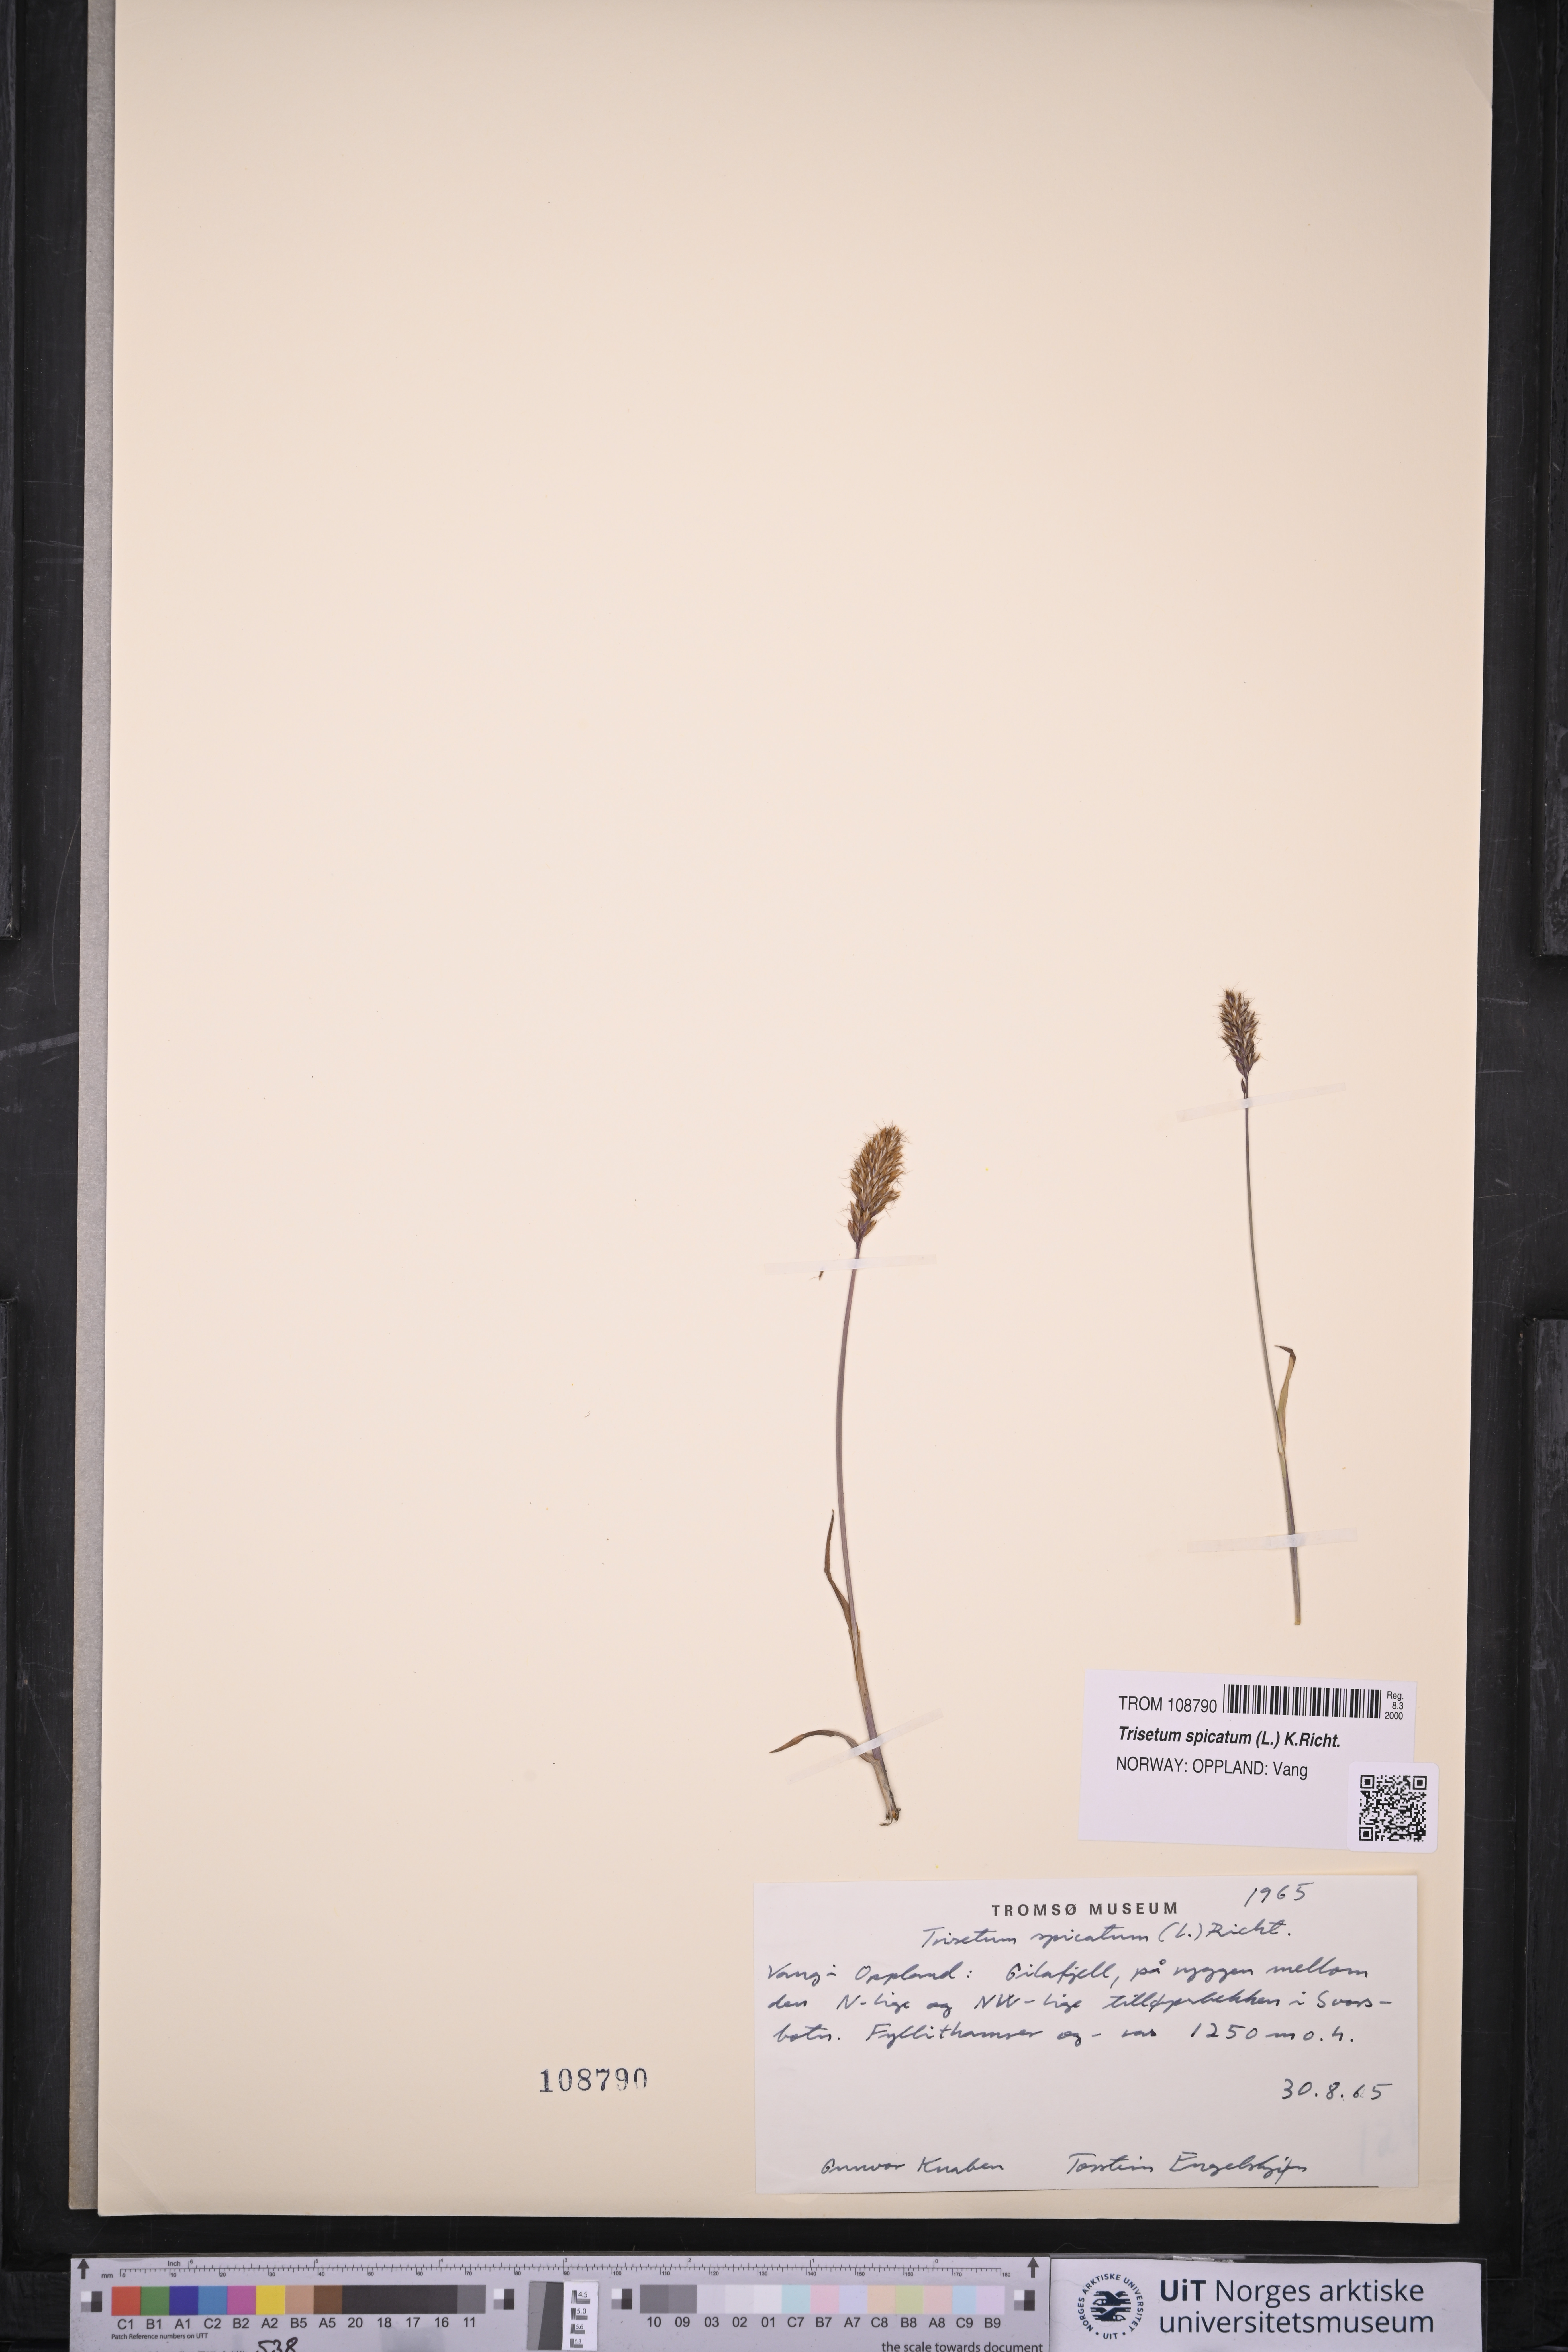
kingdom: Plantae
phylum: Tracheophyta
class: Liliopsida
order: Poales
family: Poaceae
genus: Koeleria
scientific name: Koeleria spicata
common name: Mountain trisetum
